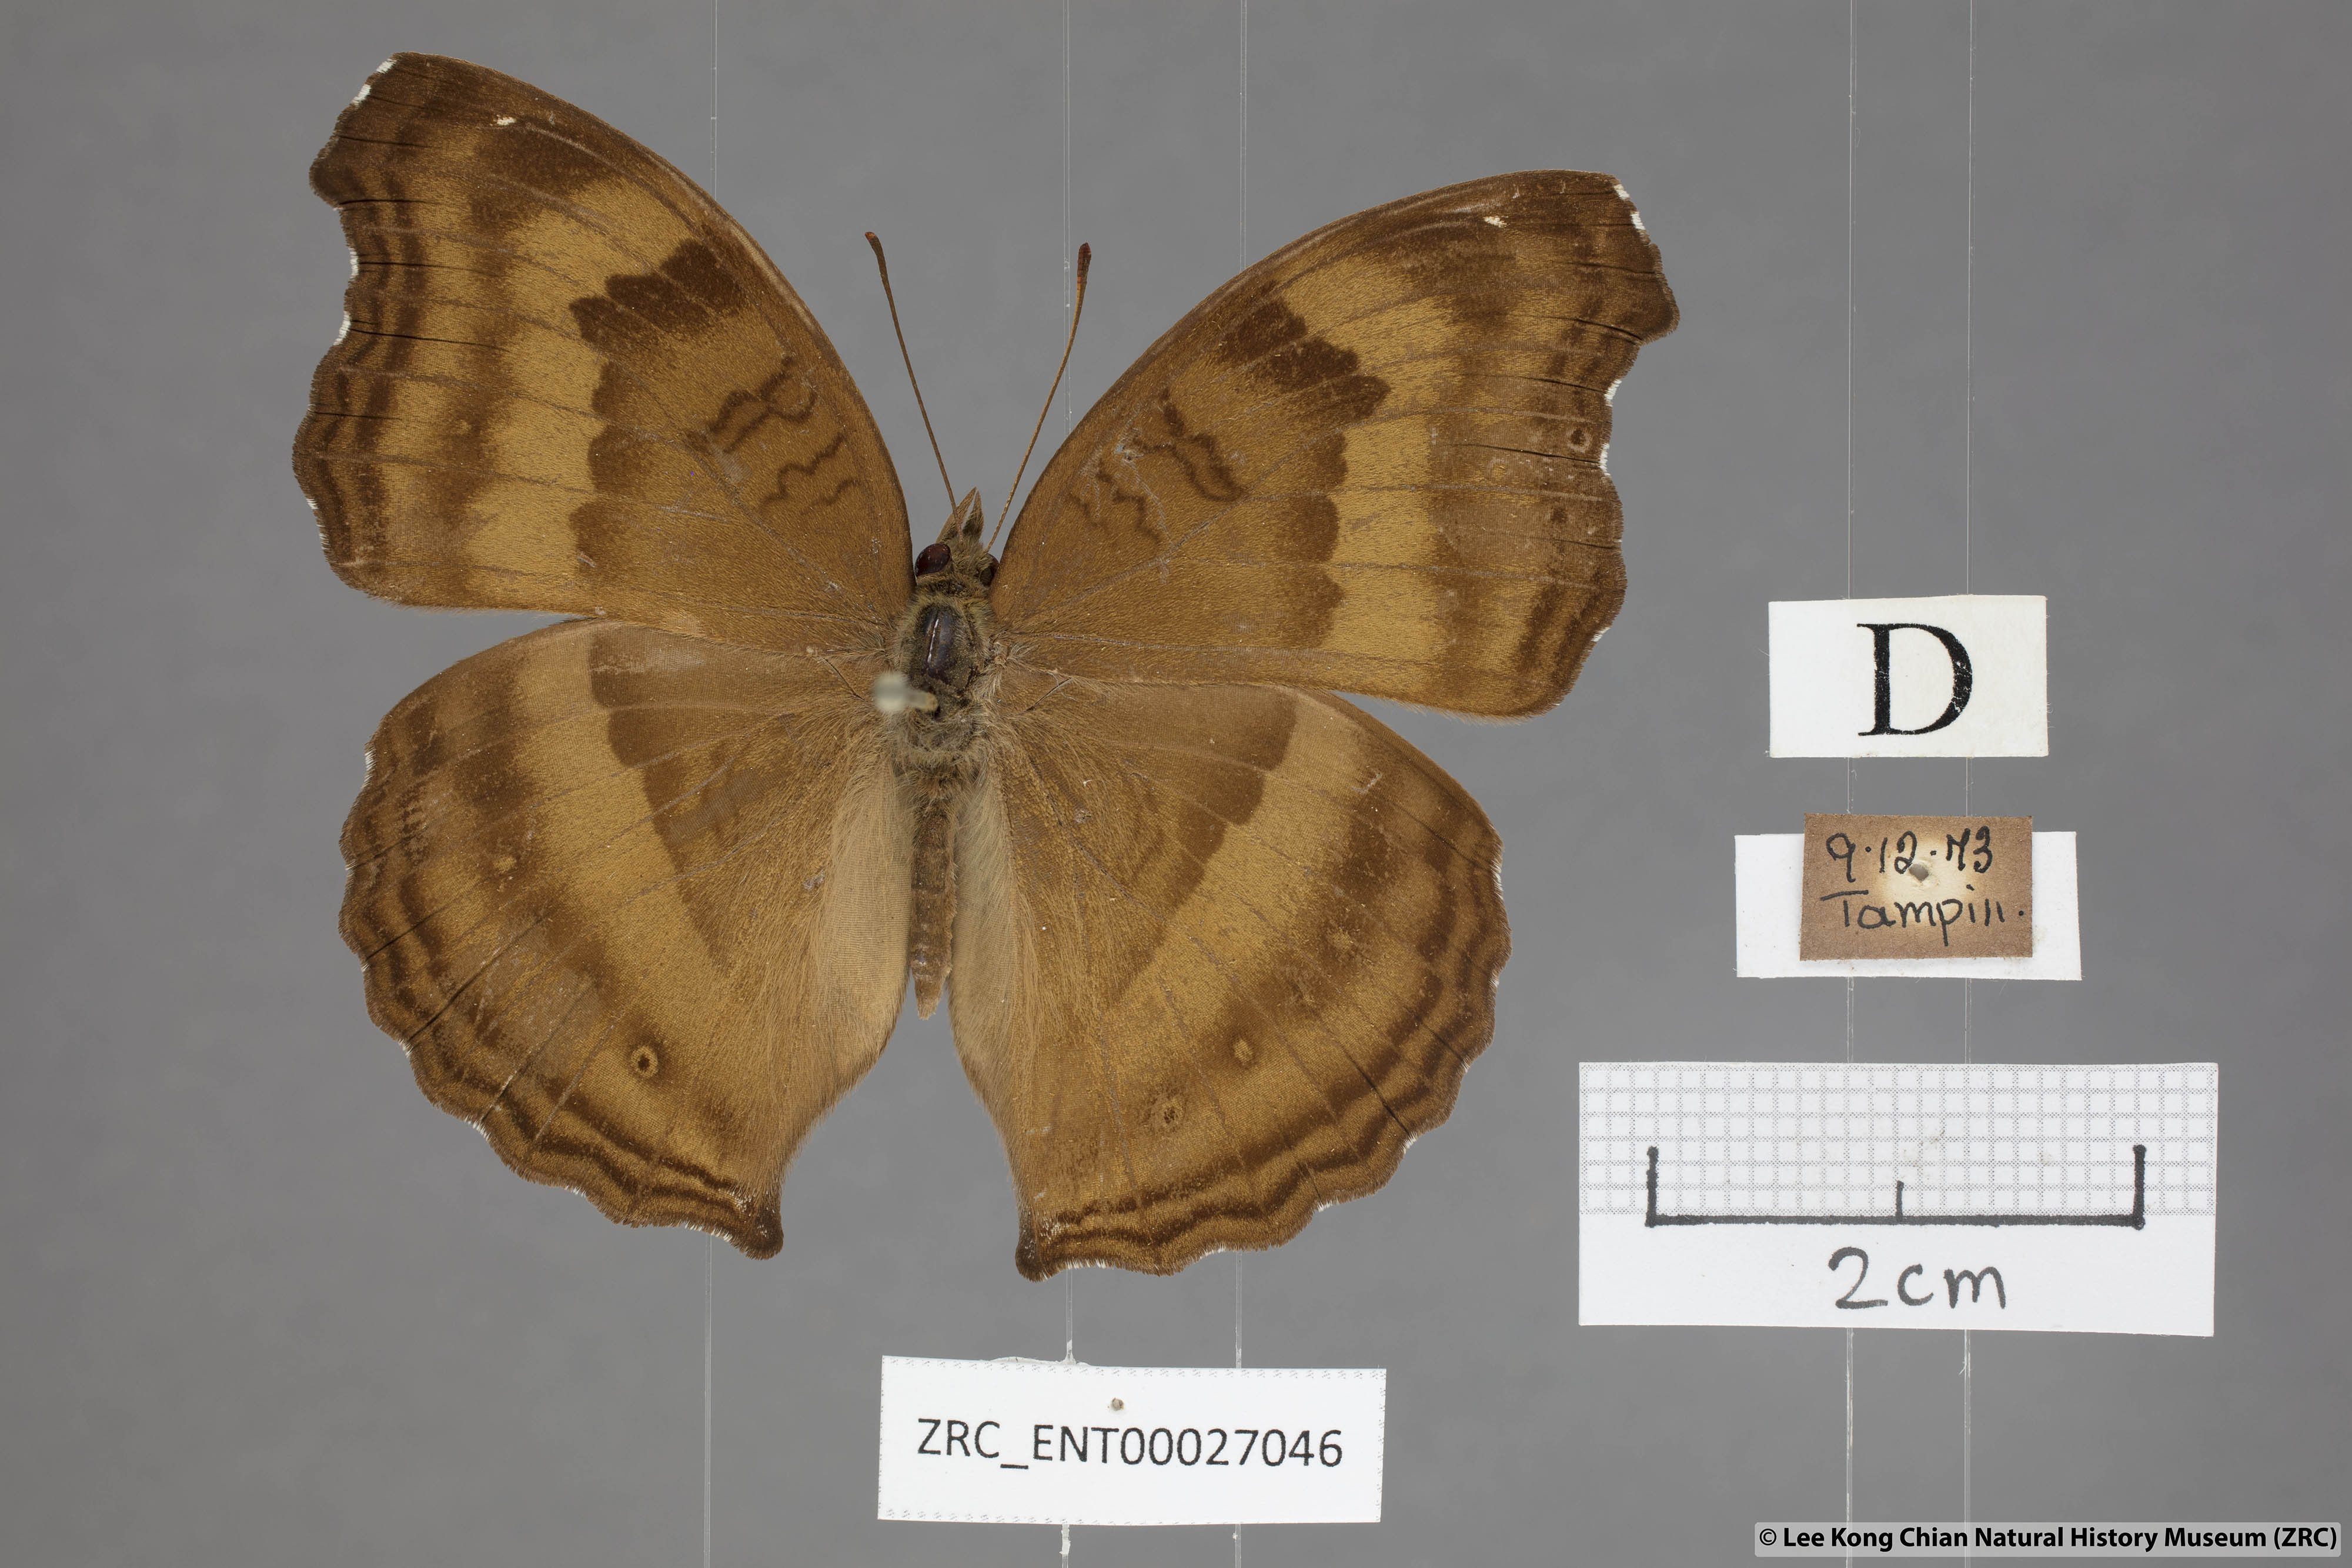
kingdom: Animalia
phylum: Arthropoda
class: Insecta
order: Lepidoptera
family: Nymphalidae
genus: Junonia
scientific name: Junonia iphita
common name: Chocolate pansy
